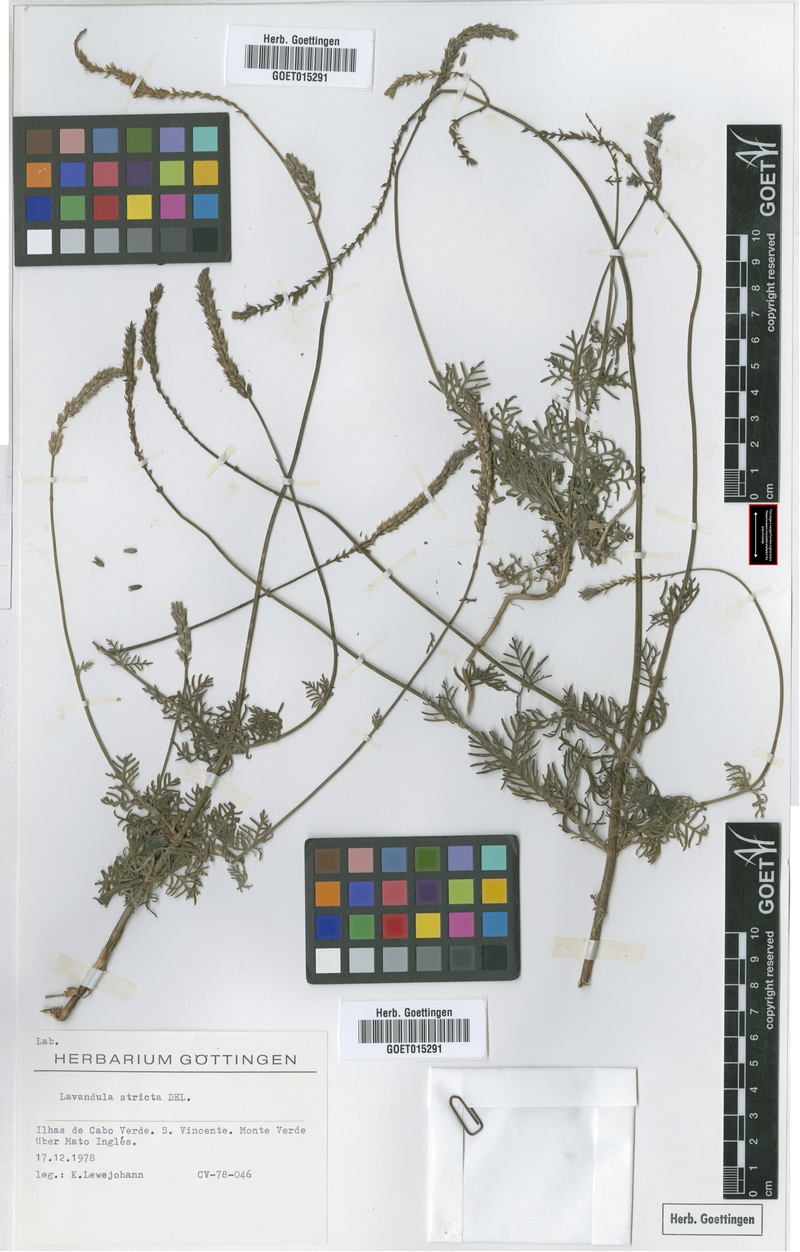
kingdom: Plantae
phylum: Tracheophyta
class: Magnoliopsida
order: Lamiales
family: Lamiaceae
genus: Lavandula
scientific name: Lavandula coronopifolia
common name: Stagshorn lavender
